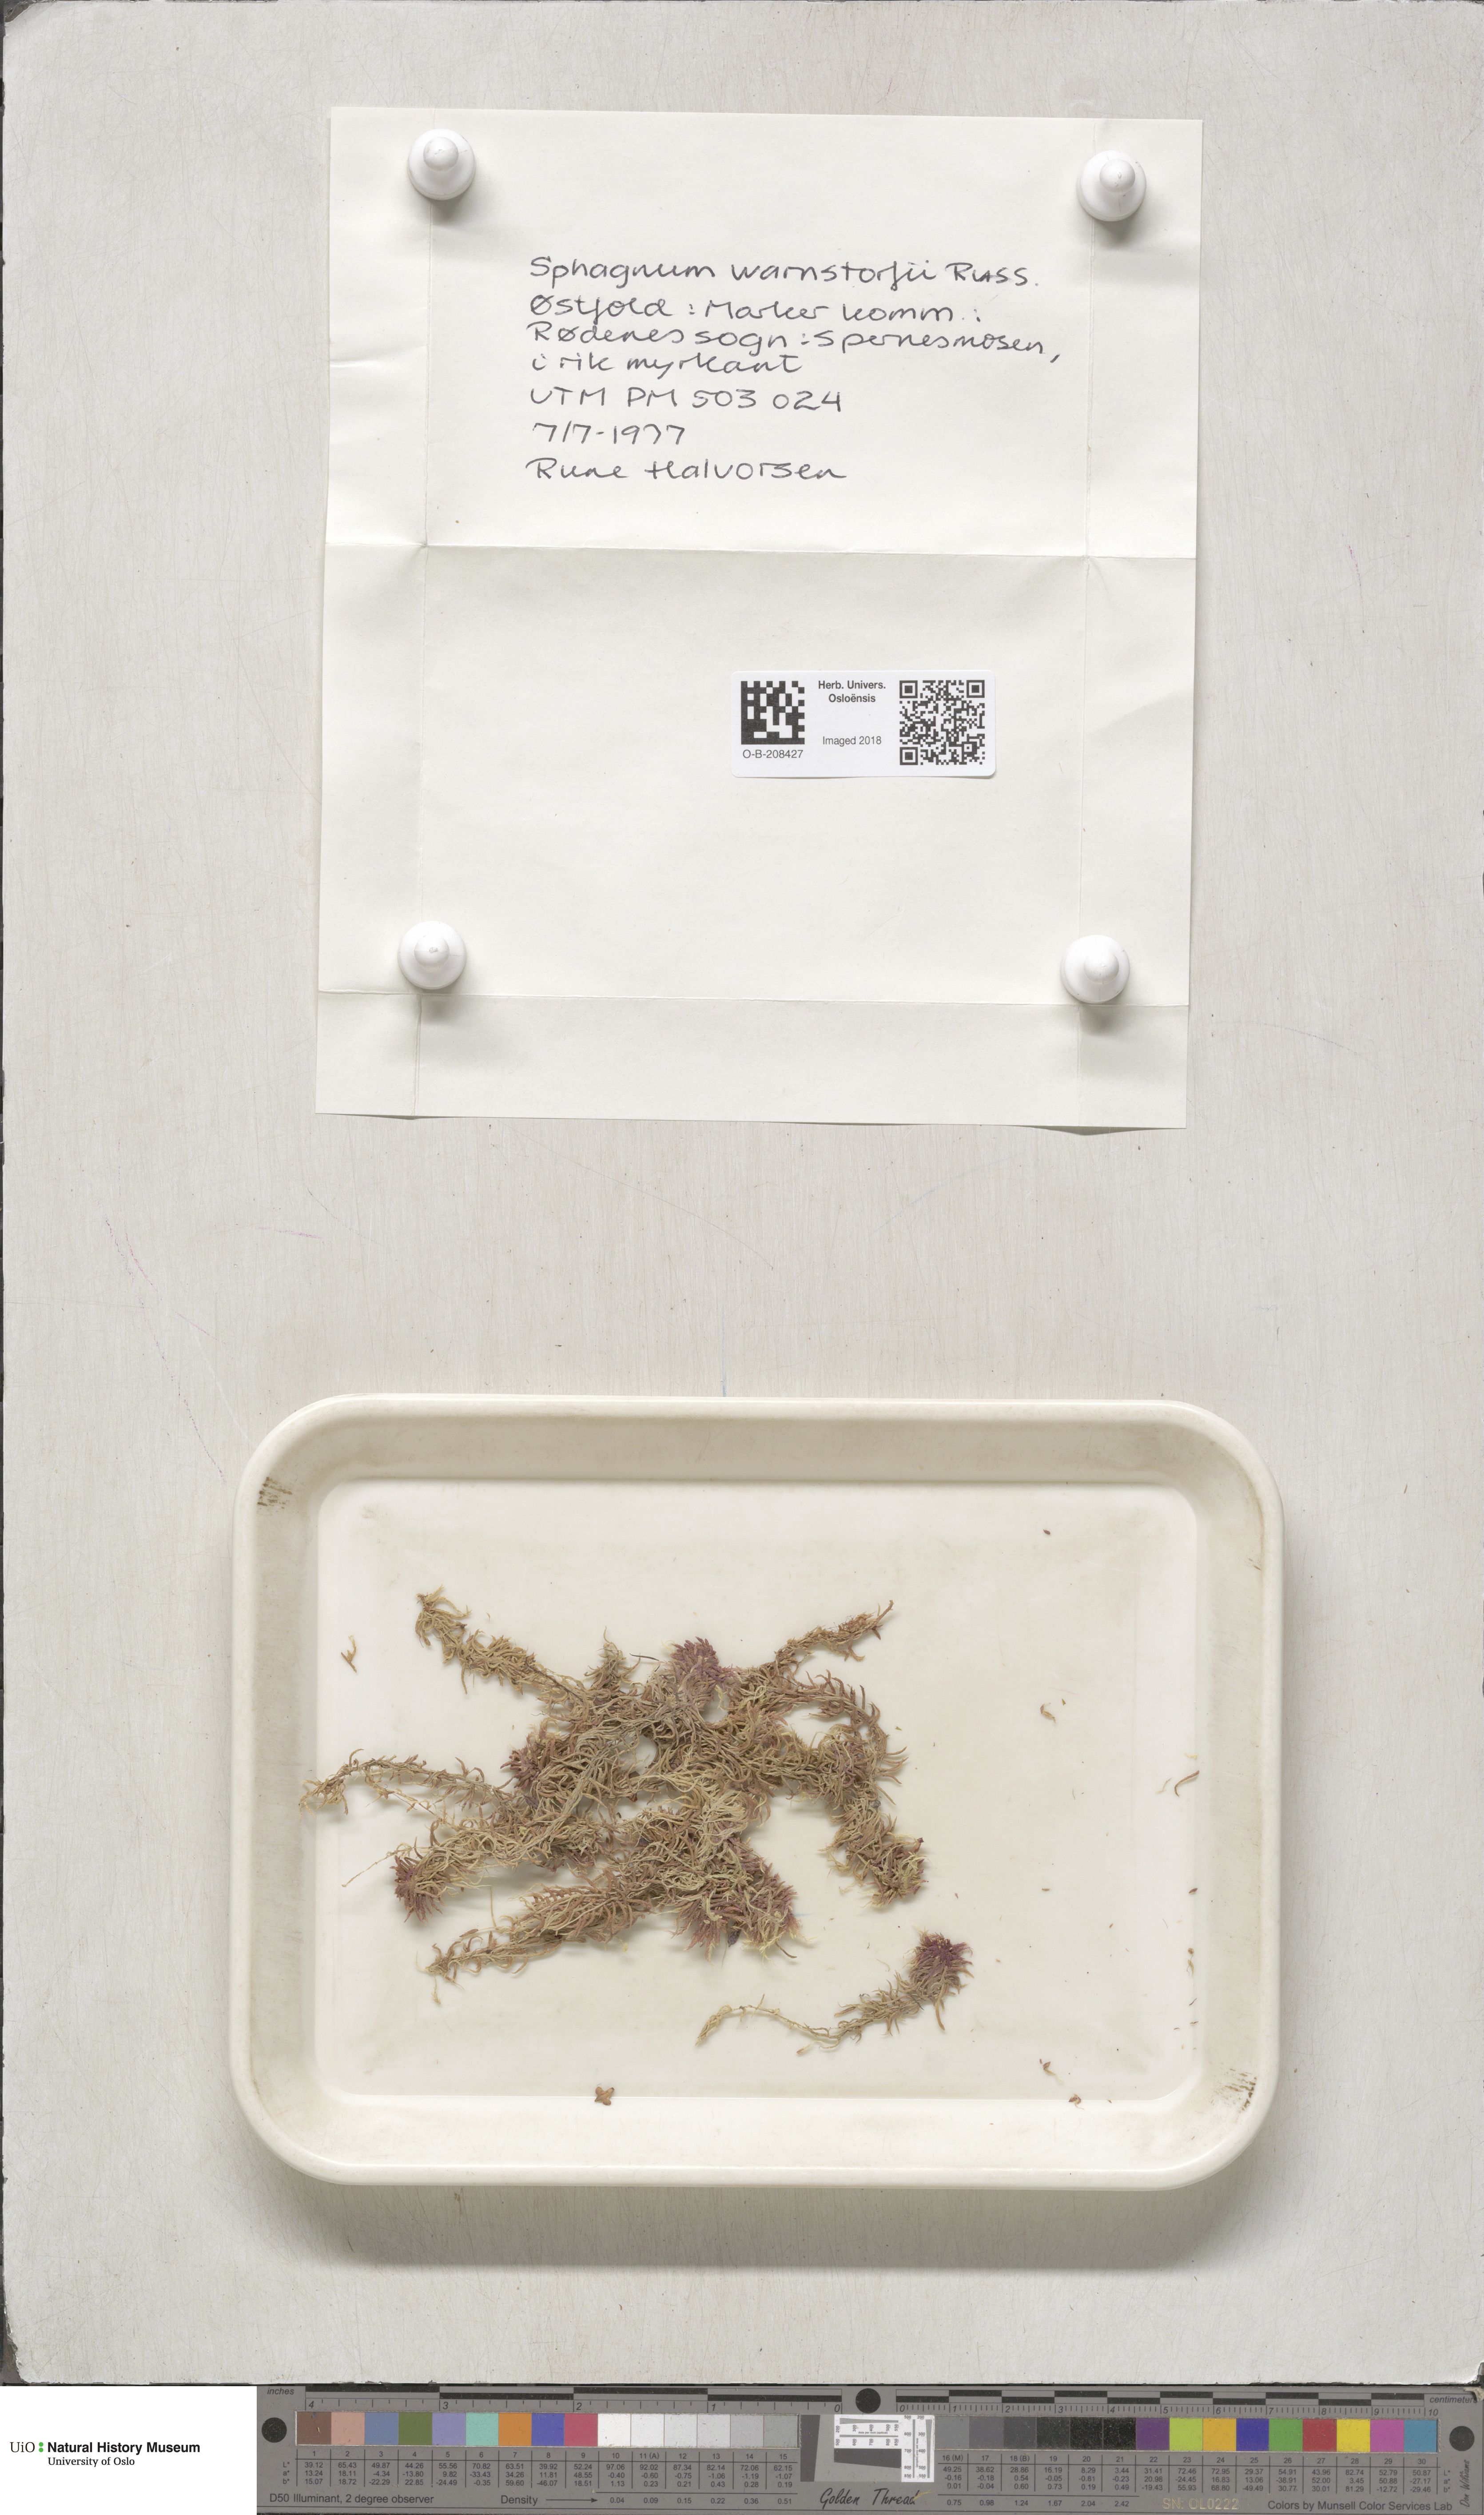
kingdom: Plantae
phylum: Bryophyta
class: Sphagnopsida
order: Sphagnales
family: Sphagnaceae
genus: Sphagnum
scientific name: Sphagnum warnstorfii
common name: Warnstorf's peat moss
